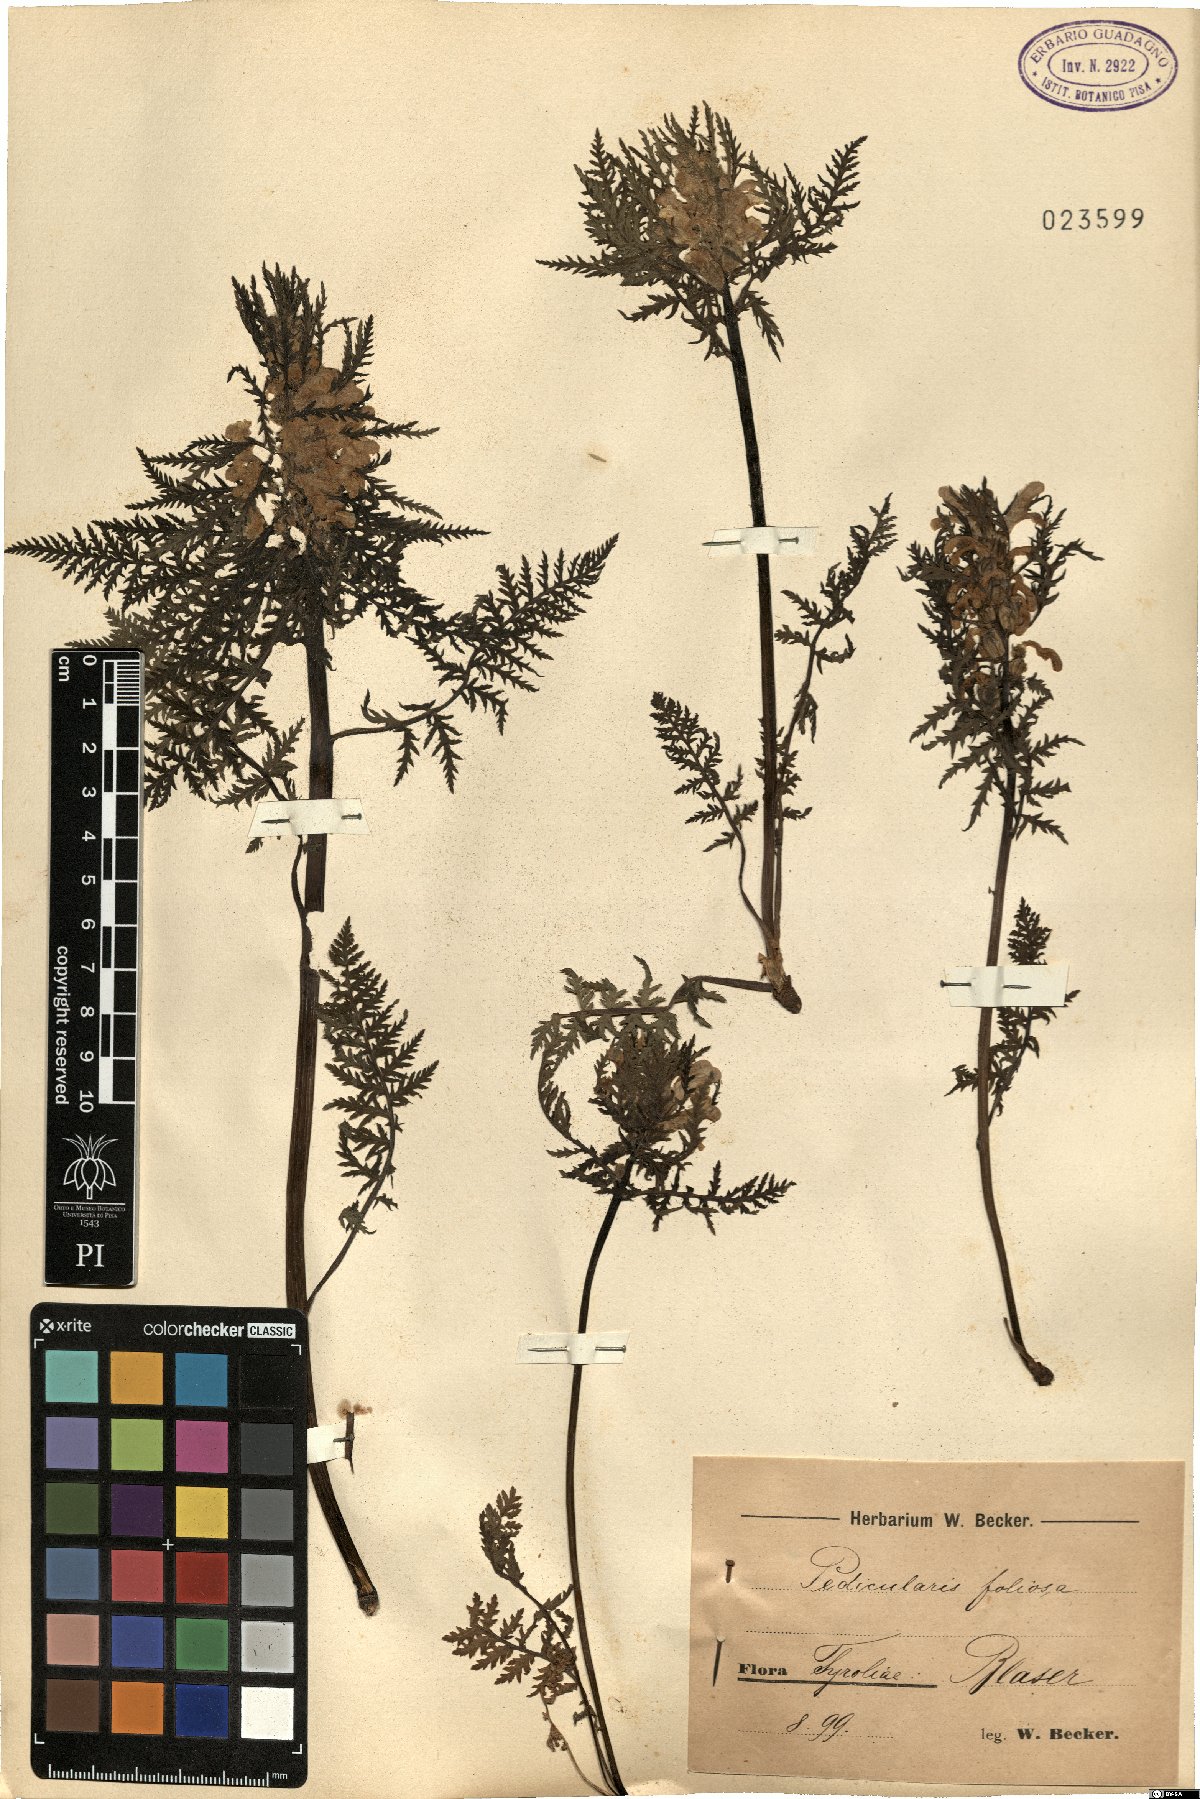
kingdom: Plantae
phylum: Tracheophyta
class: Magnoliopsida
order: Lamiales
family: Orobanchaceae
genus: Pedicularis
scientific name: Pedicularis foliosa
